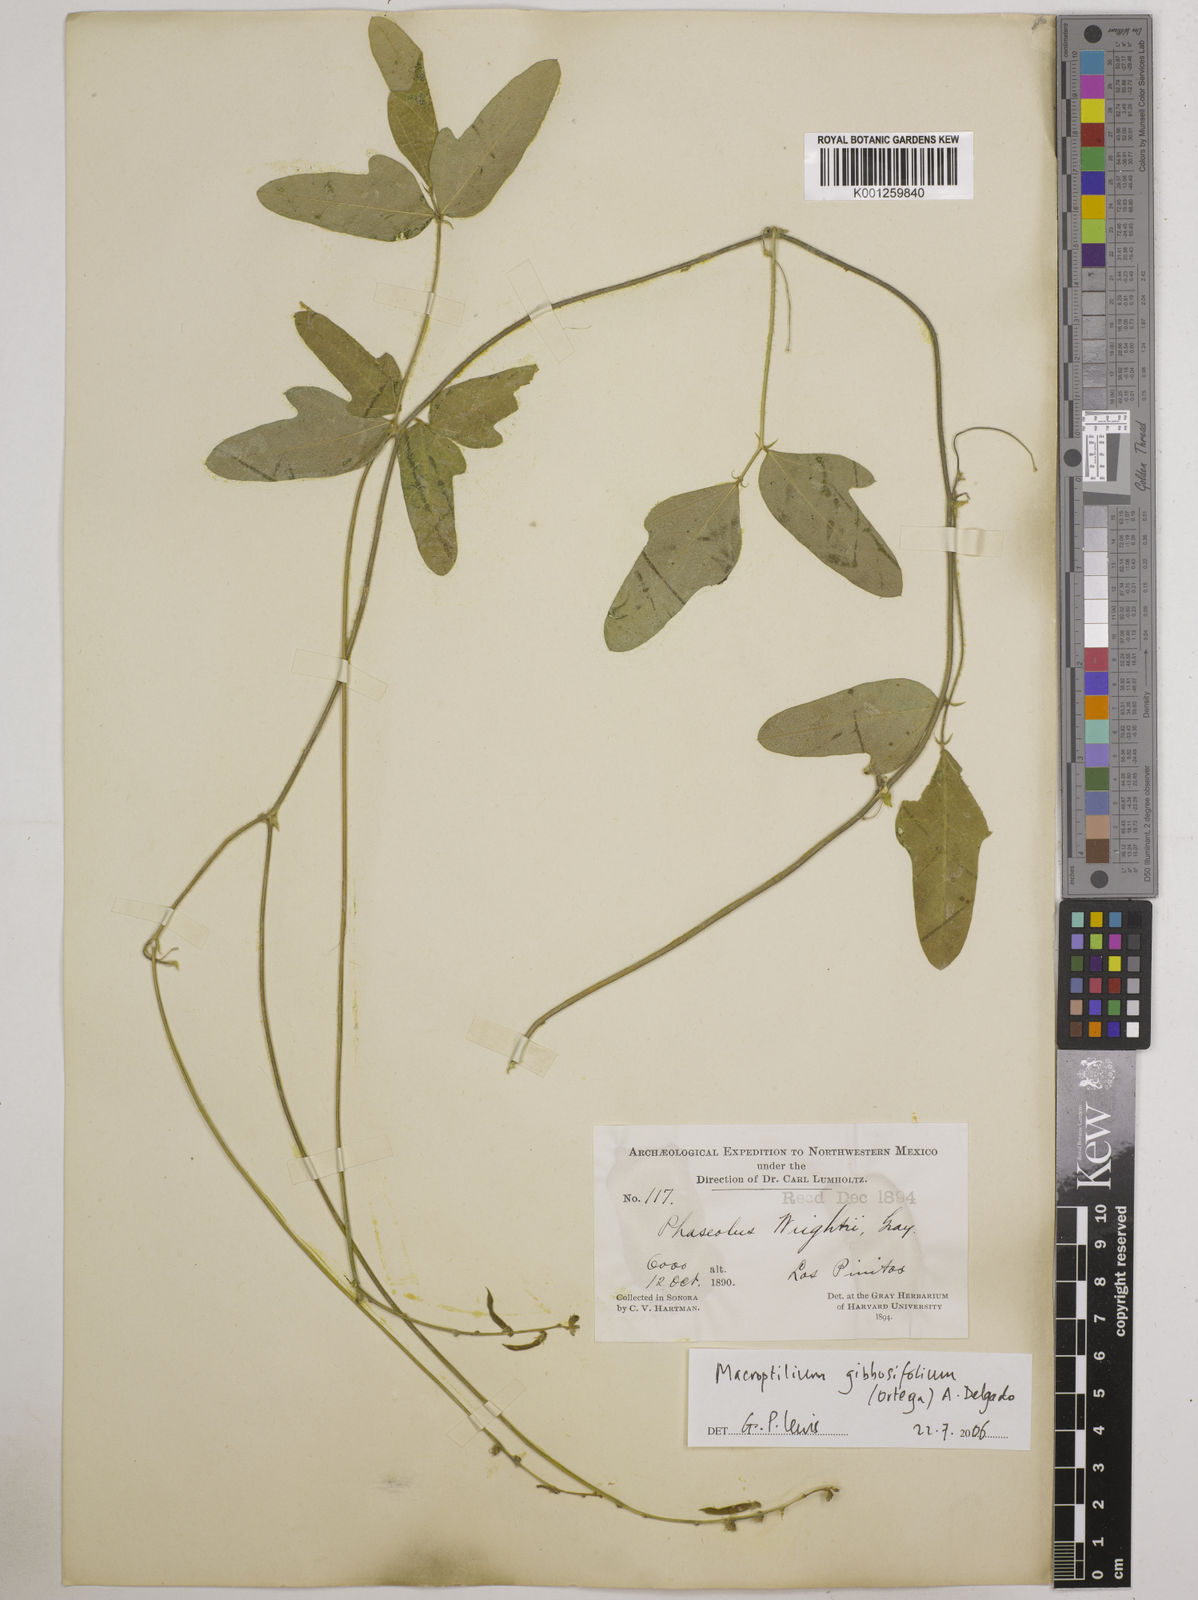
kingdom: Plantae
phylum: Tracheophyta
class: Magnoliopsida
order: Fabales
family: Fabaceae
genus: Macroptilium
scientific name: Macroptilium gibbosifolium
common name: Variableleaf bushbean
